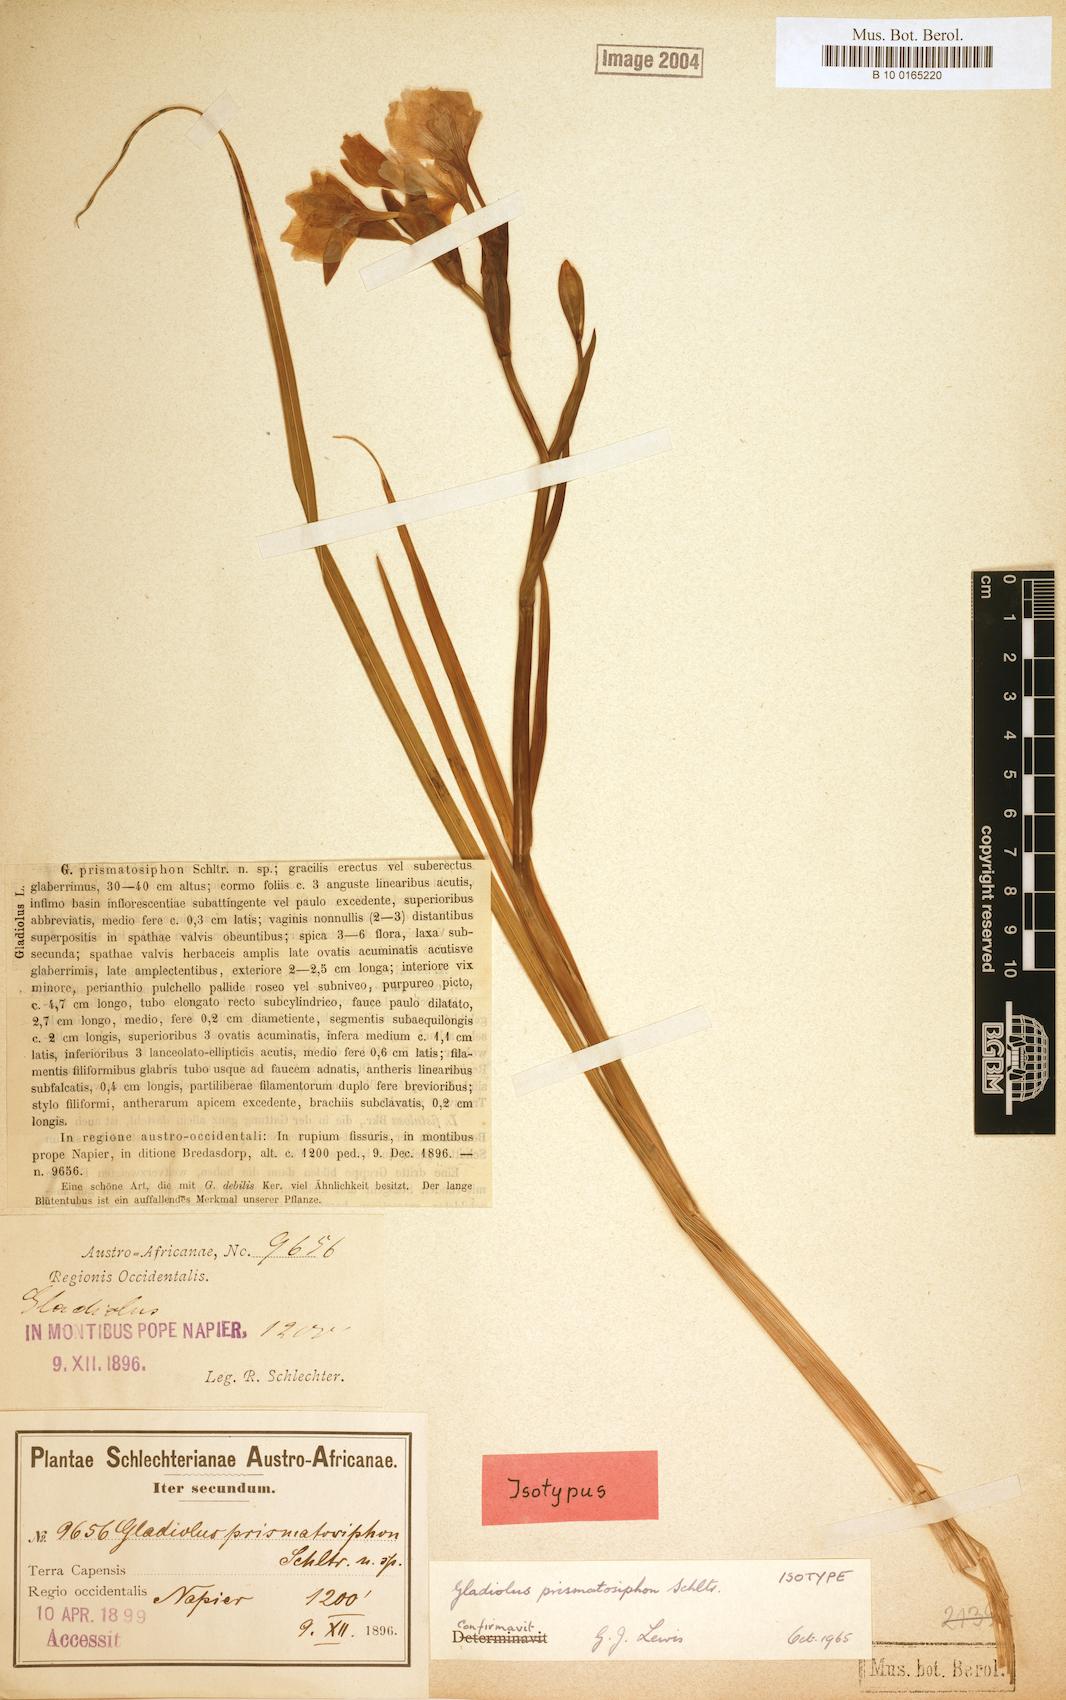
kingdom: Plantae
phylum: Tracheophyta
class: Liliopsida
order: Asparagales
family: Iridaceae
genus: Gladiolus
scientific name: Gladiolus carneus
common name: Painted-lady
